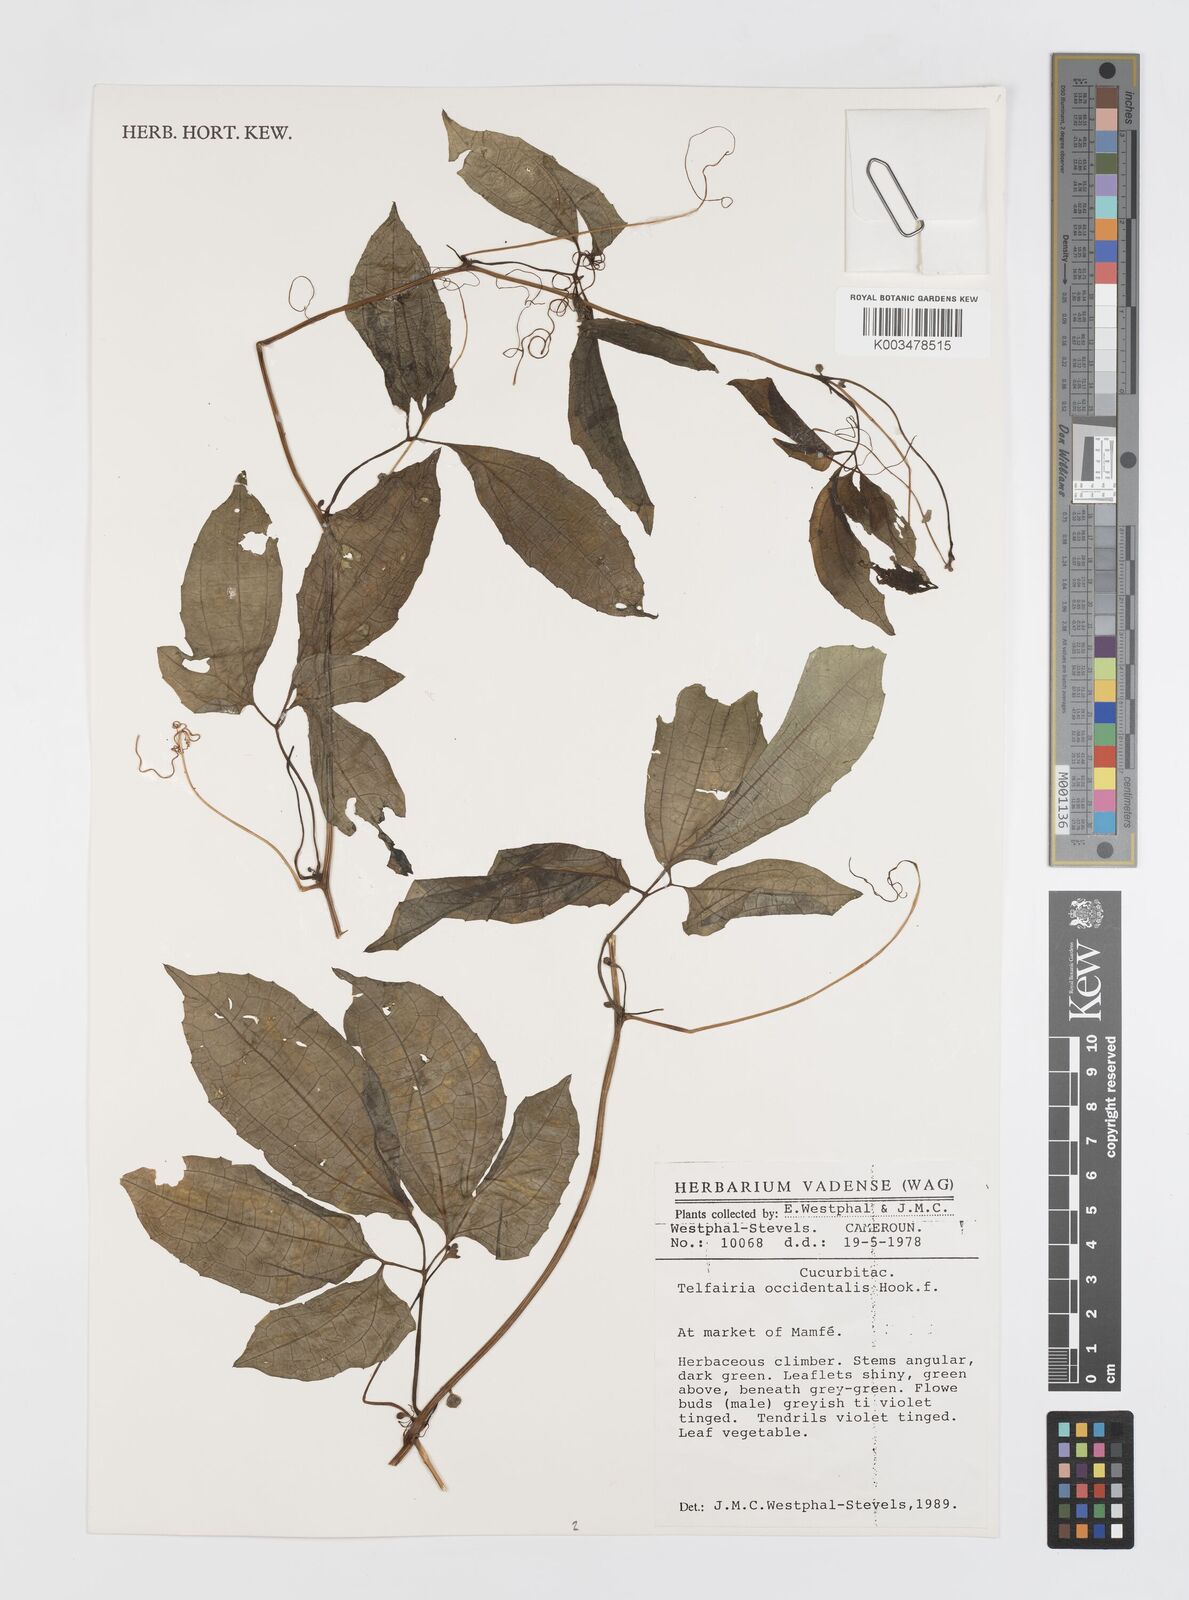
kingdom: Plantae
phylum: Tracheophyta
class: Magnoliopsida
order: Cucurbitales
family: Cucurbitaceae
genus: Telfairia
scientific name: Telfairia occidentalis
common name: Oysternut
